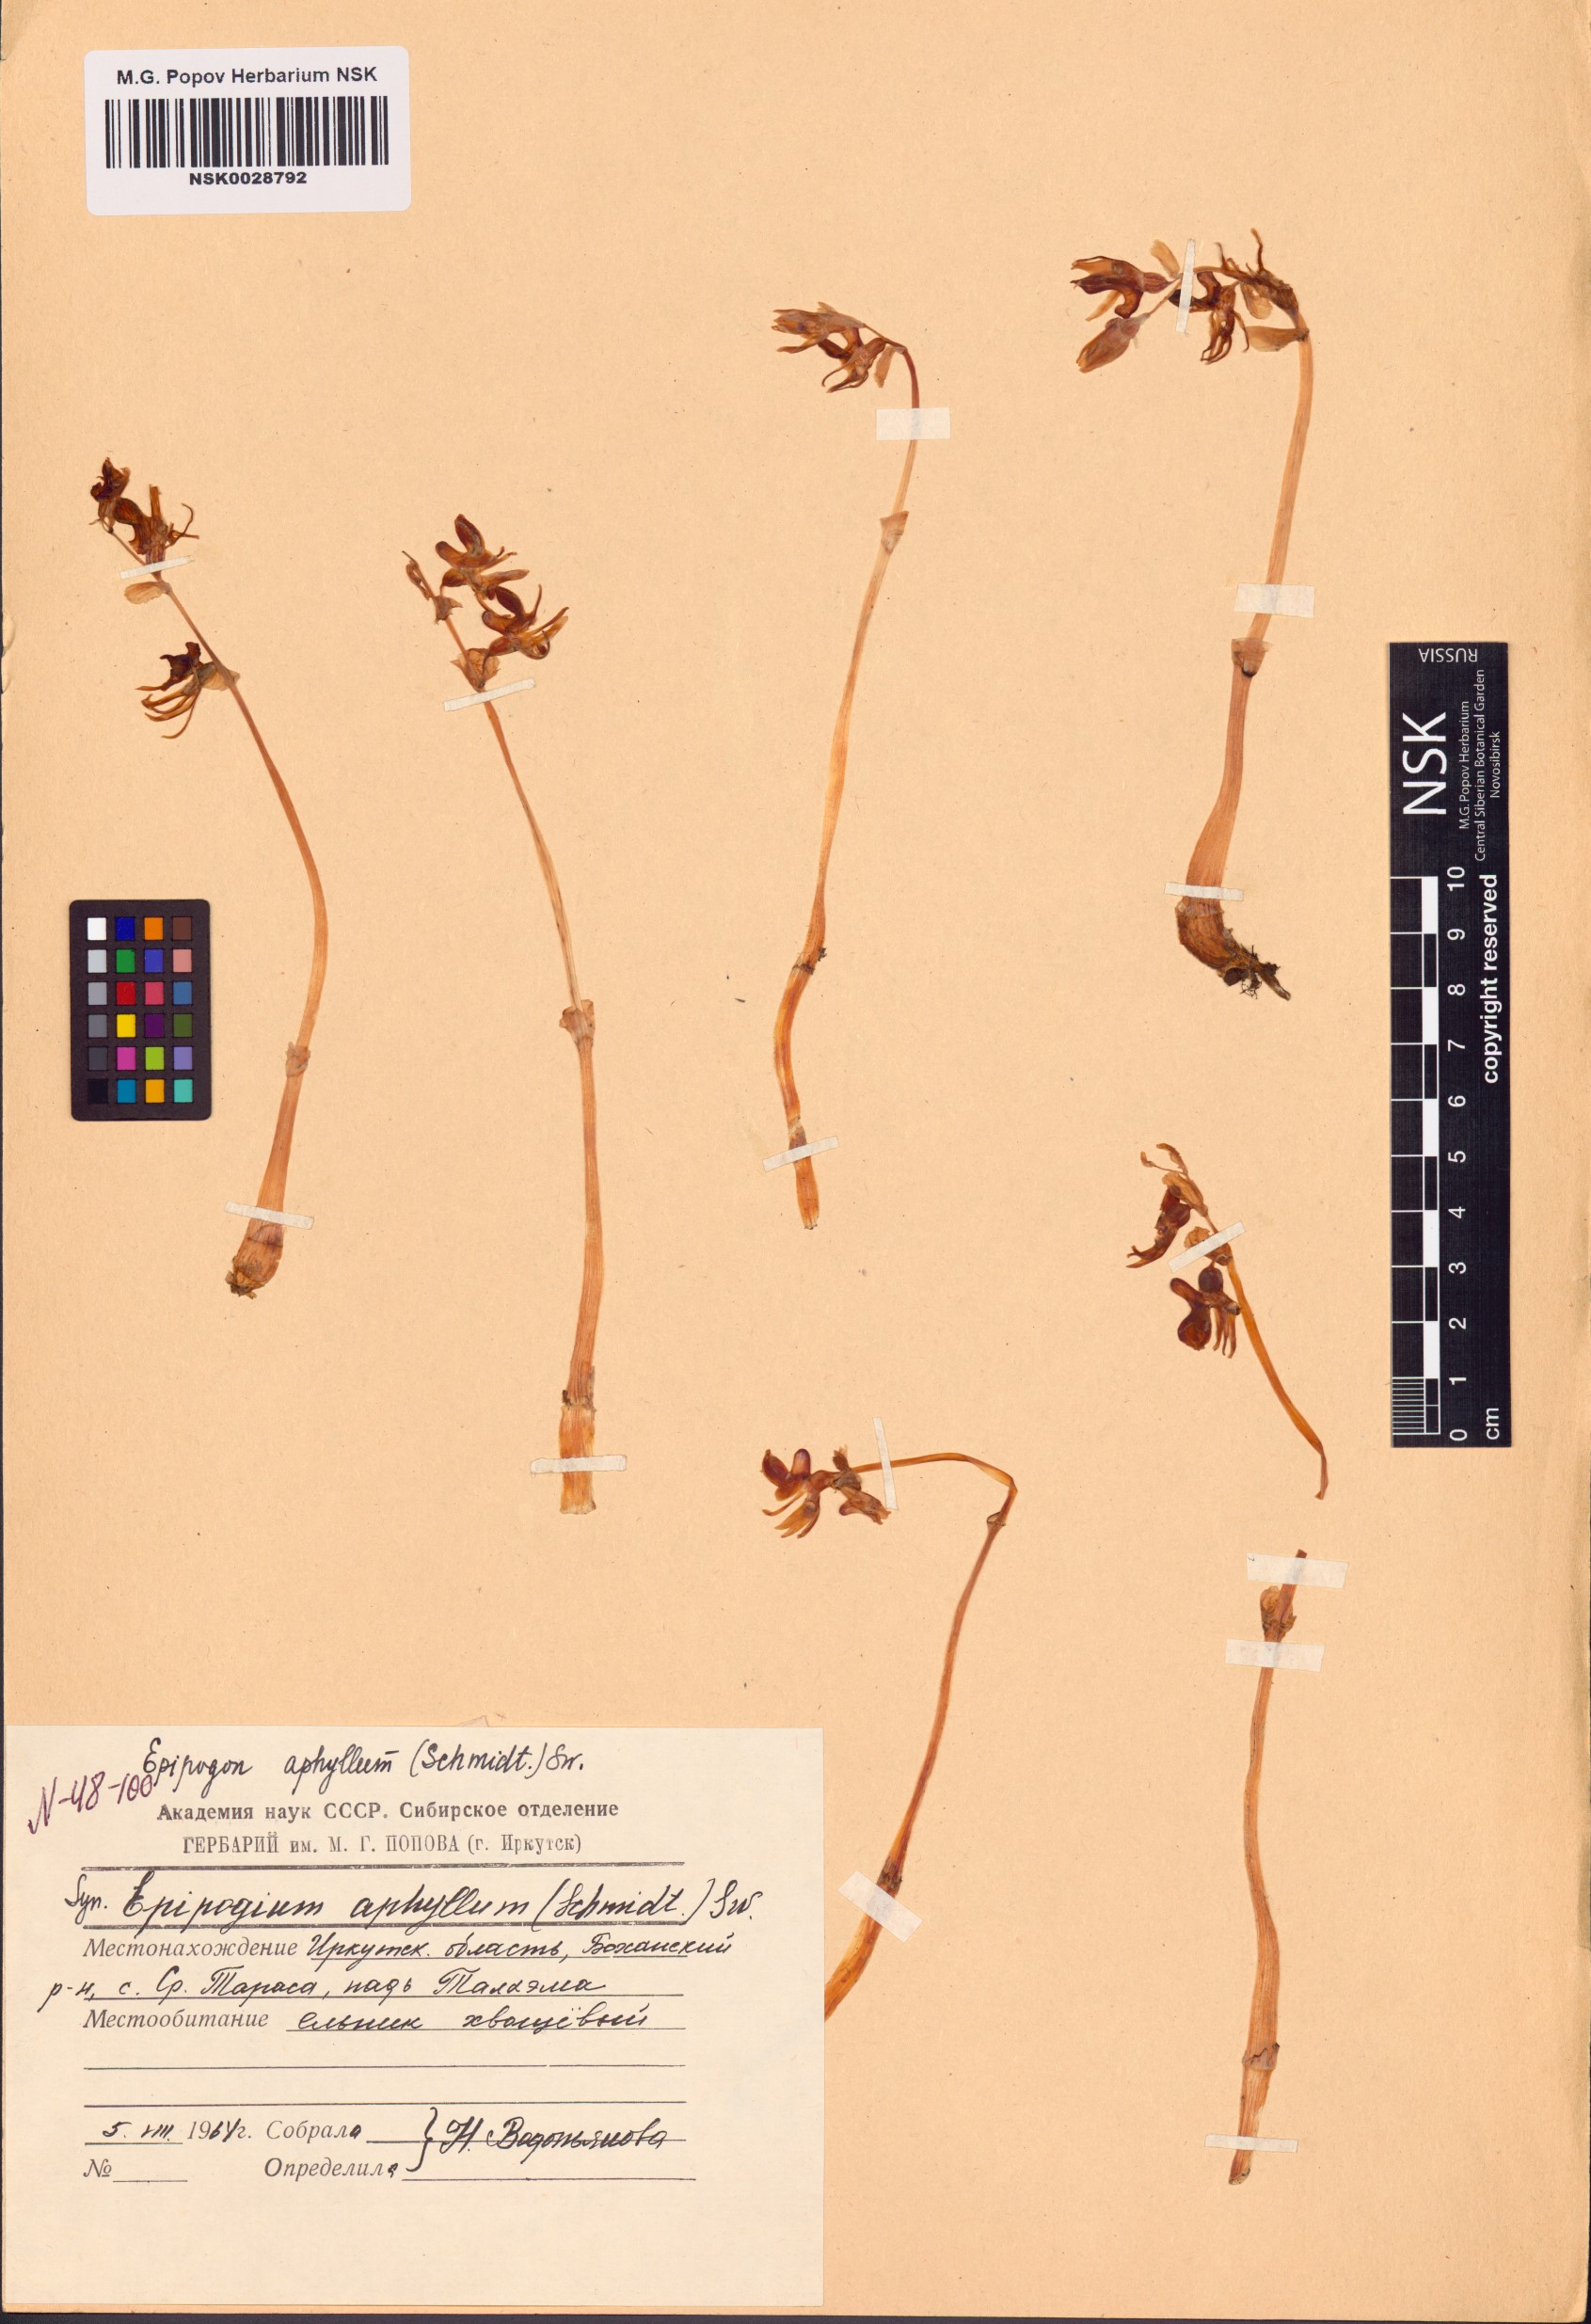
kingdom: Plantae
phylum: Tracheophyta
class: Liliopsida
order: Asparagales
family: Orchidaceae
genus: Epipogium
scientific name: Epipogium aphyllum
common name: Ghost orchid
